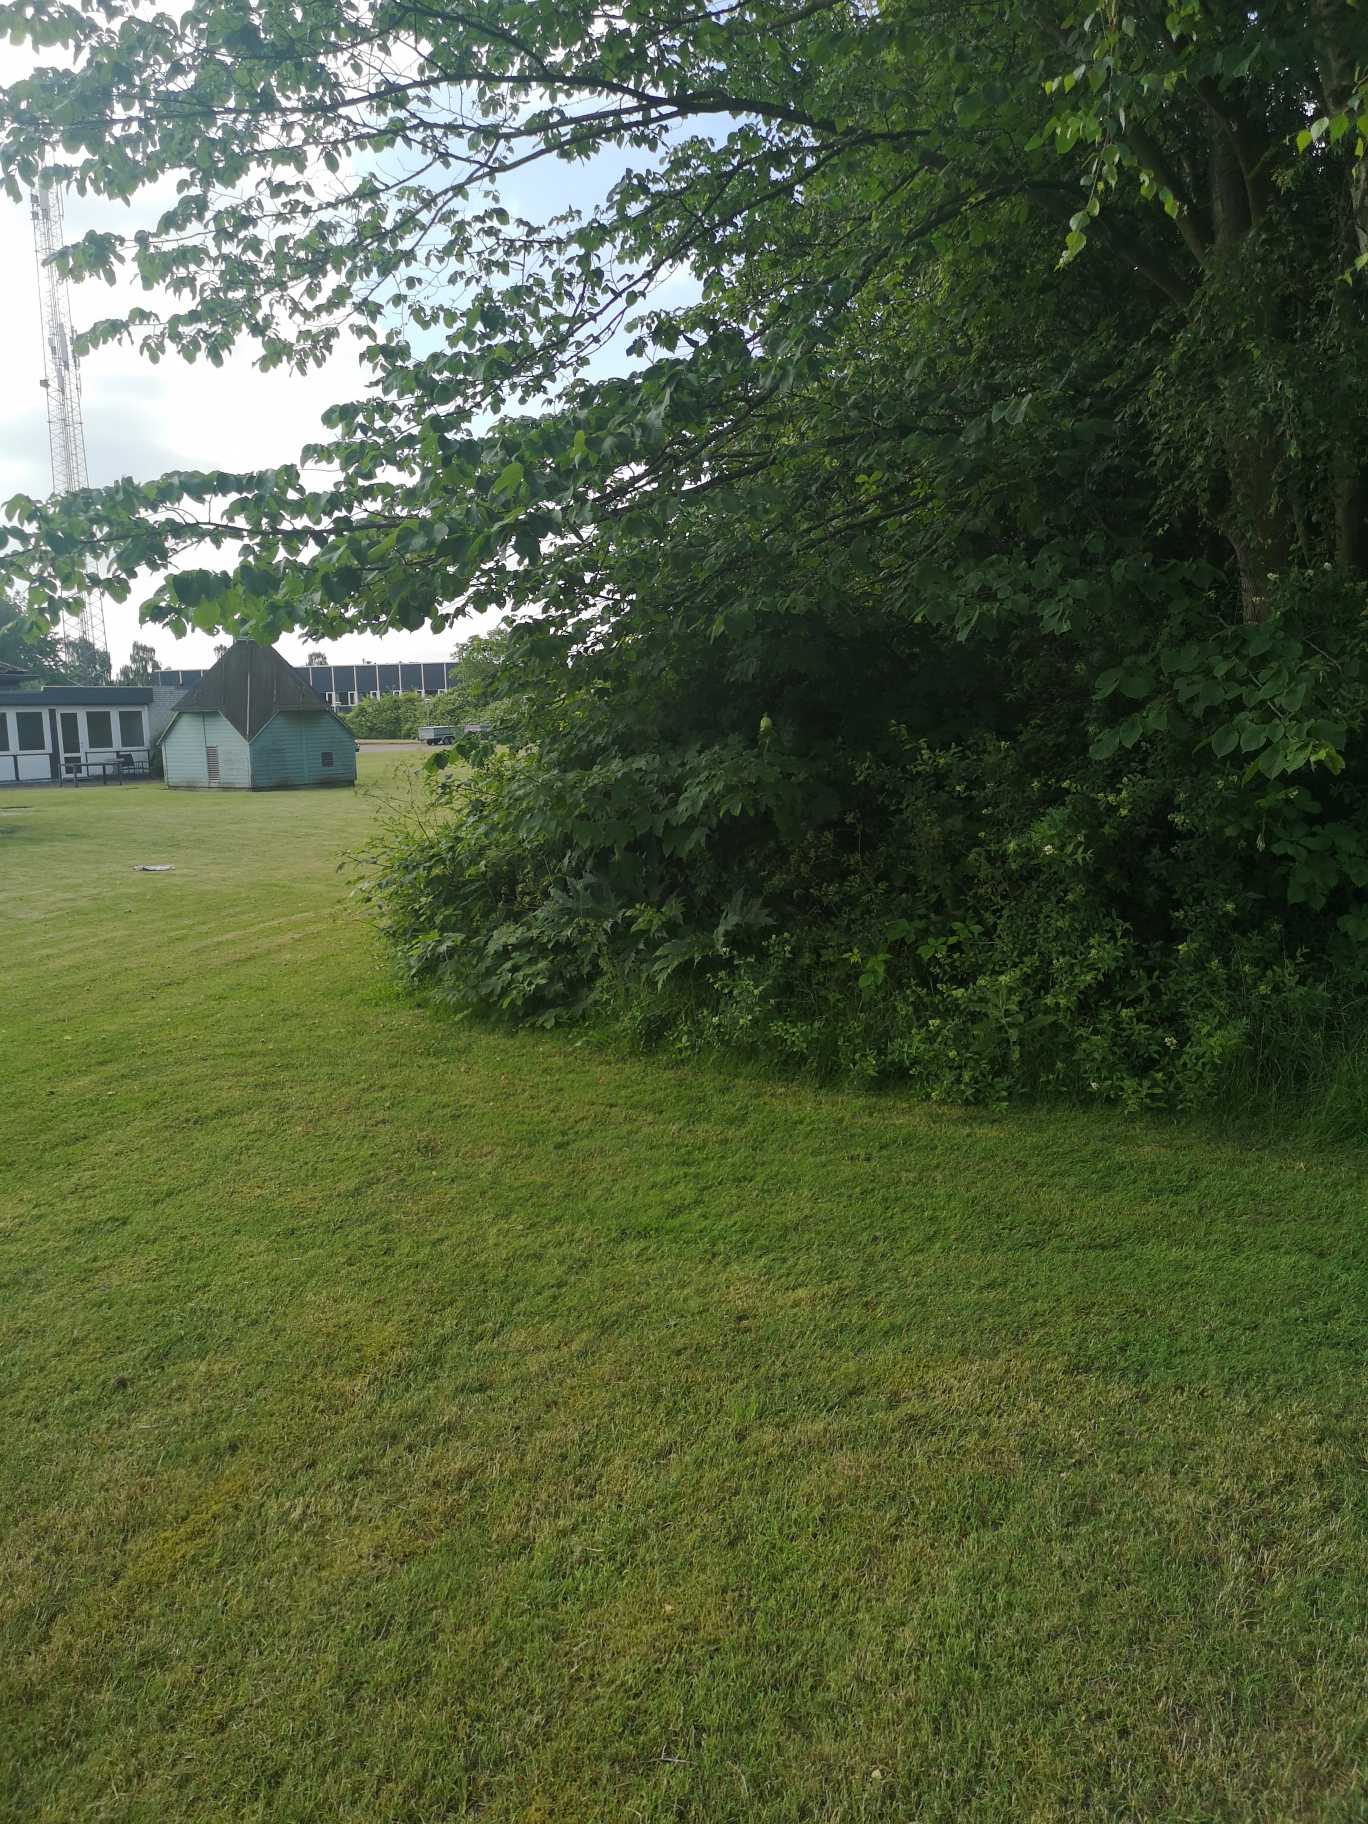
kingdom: Plantae
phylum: Tracheophyta
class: Magnoliopsida
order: Apiales
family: Apiaceae
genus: Heracleum
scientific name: Heracleum mantegazzianum
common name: Kæmpe-bjørneklo
